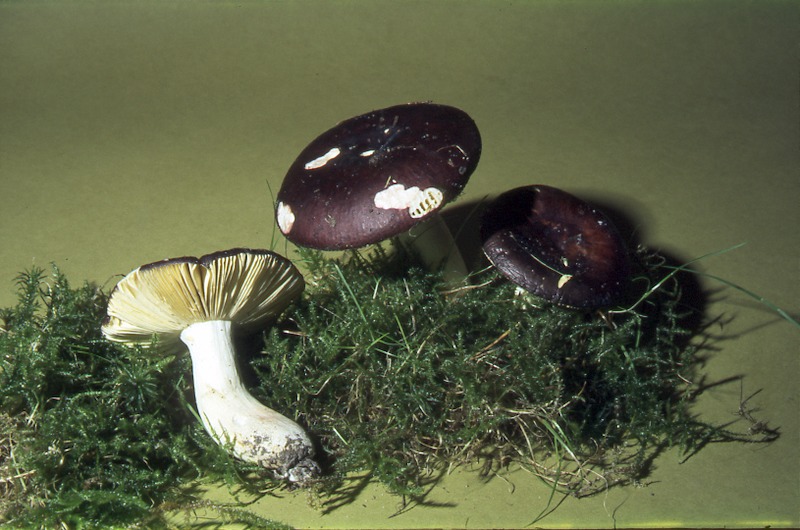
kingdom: Fungi
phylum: Basidiomycota
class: Agaricomycetes
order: Russulales
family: Russulaceae
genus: Russula
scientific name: Russula alutacea
